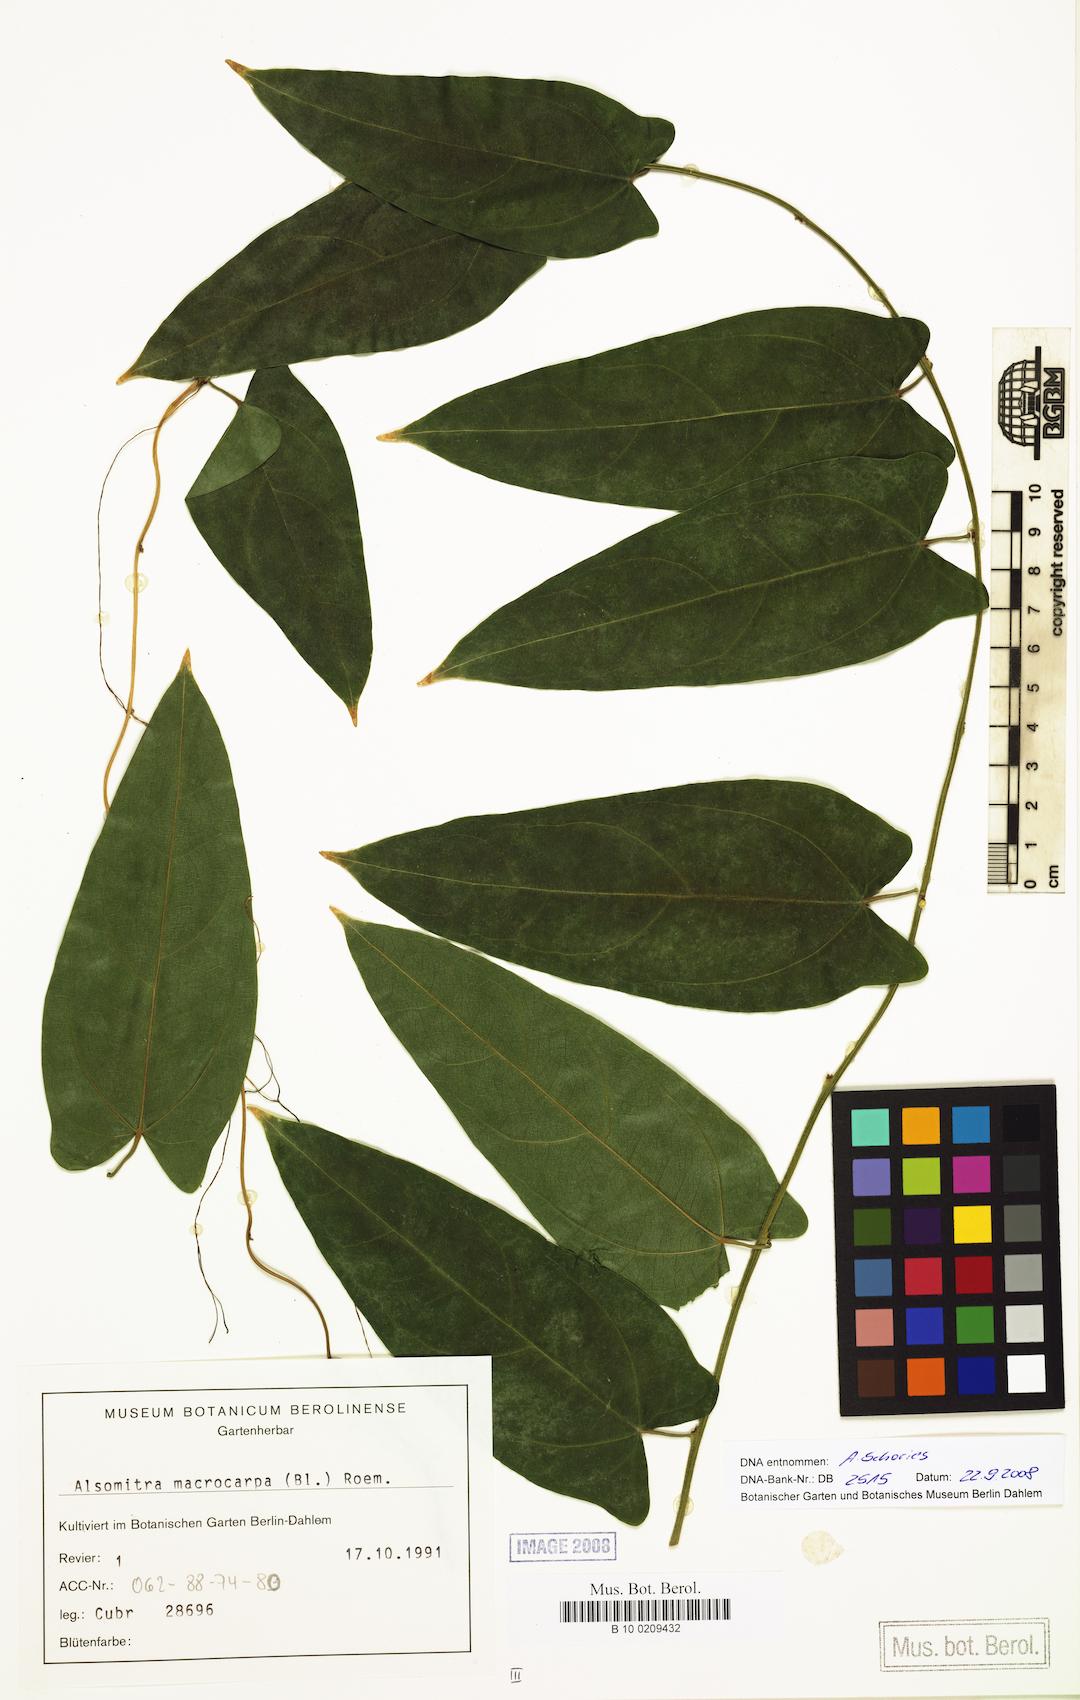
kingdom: Plantae
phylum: Tracheophyta
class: Magnoliopsida
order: Cucurbitales
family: Cucurbitaceae
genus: Alsomitra
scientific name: Alsomitra macrocarpa
